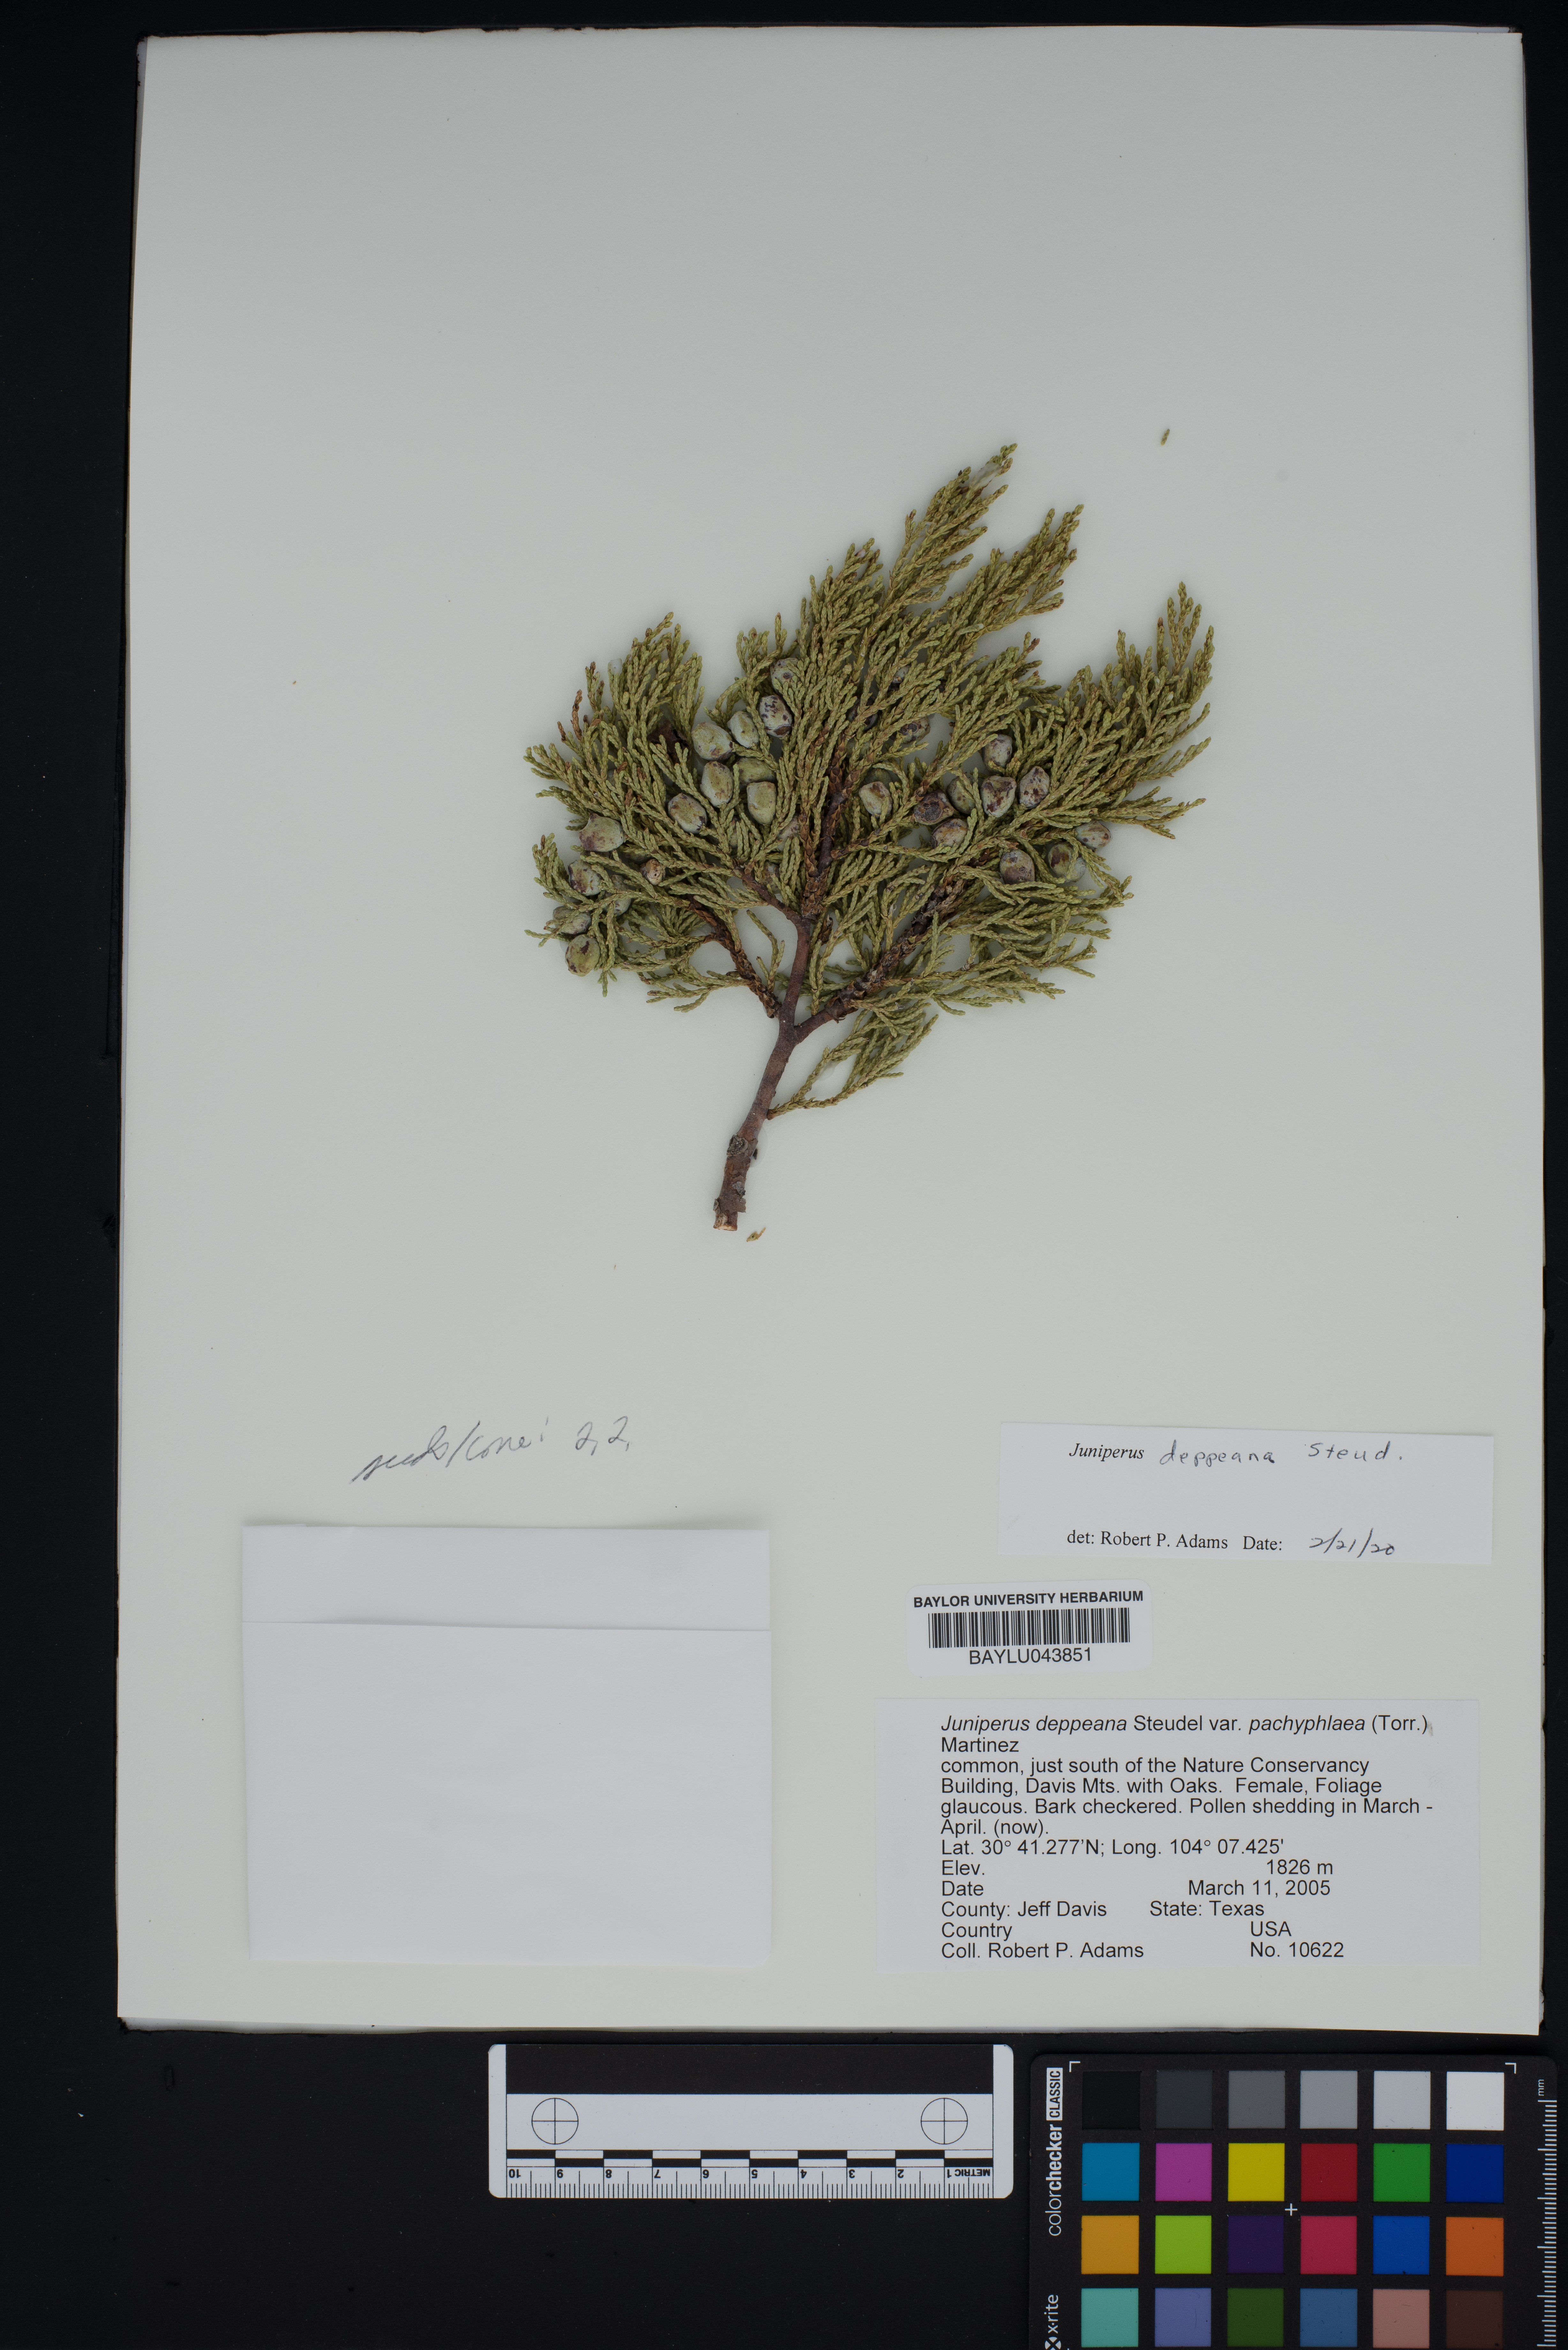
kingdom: Plantae
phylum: Tracheophyta
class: Pinopsida
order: Pinales
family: Cupressaceae
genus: Juniperus
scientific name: Juniperus deppeana
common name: Alligator juniper
